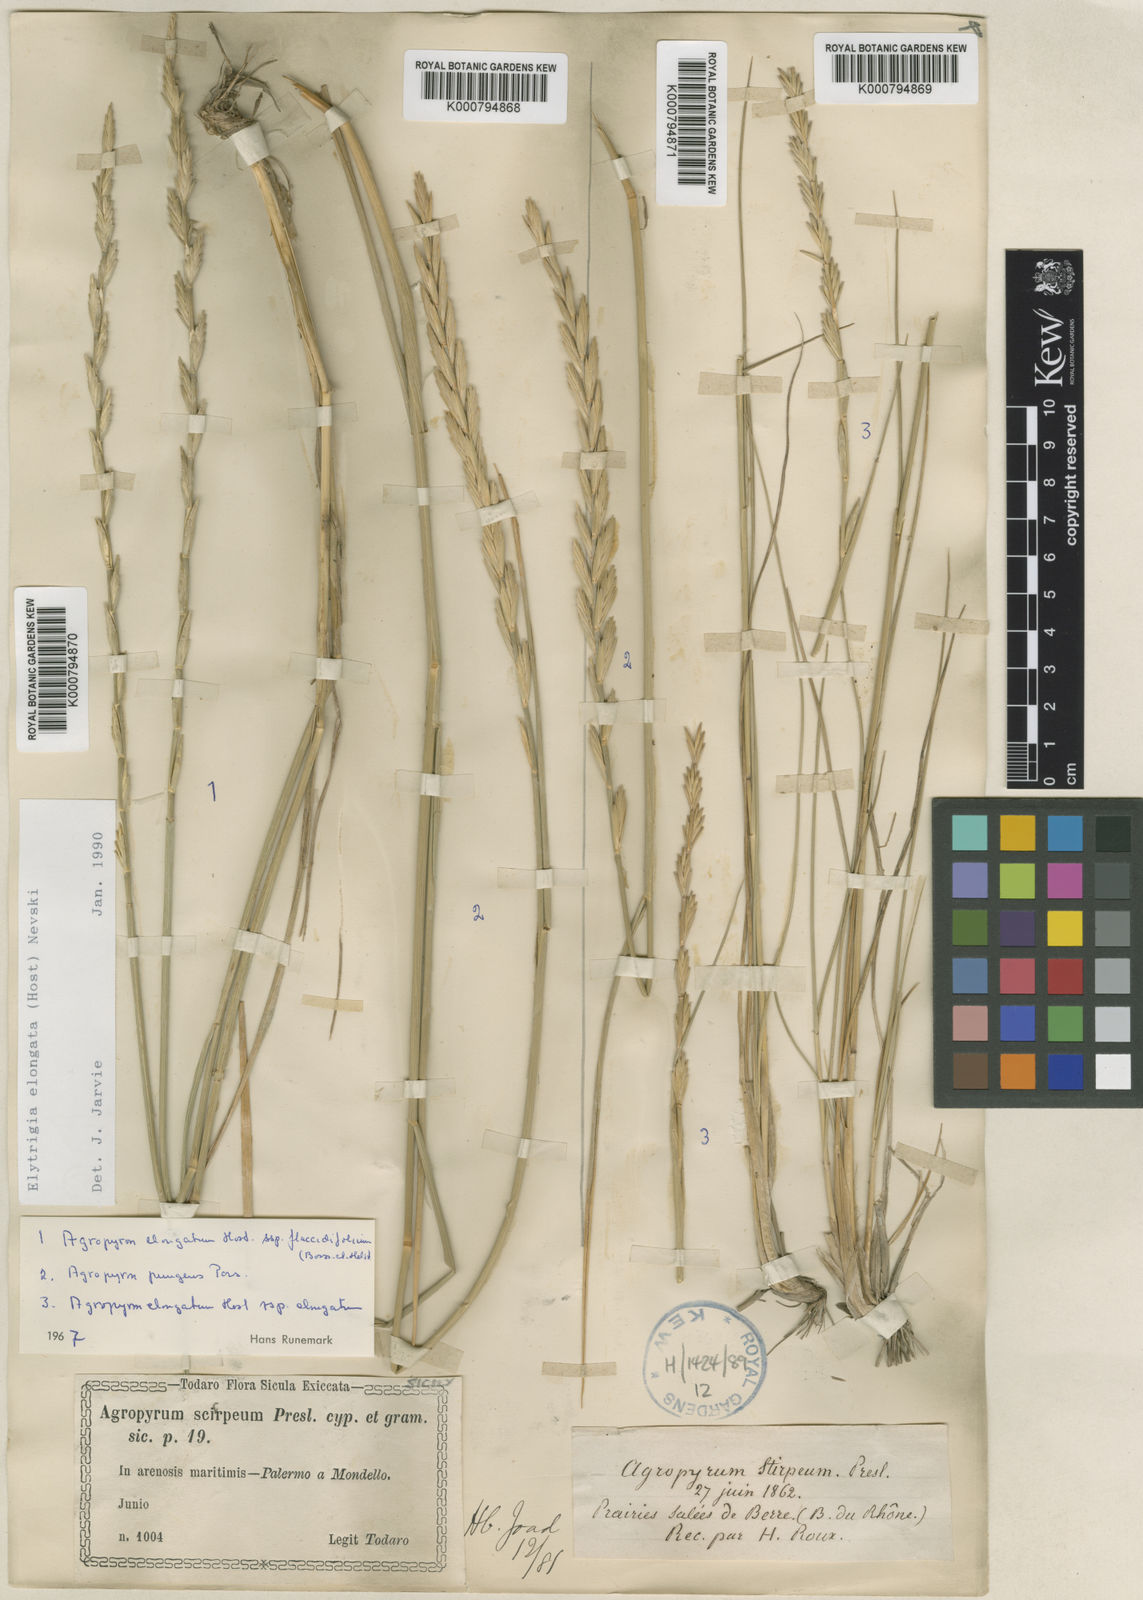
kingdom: Plantae
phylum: Tracheophyta
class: Liliopsida
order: Poales
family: Poaceae
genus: Thinopyrum
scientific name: Thinopyrum elongatum
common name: Tall wheatgrass
